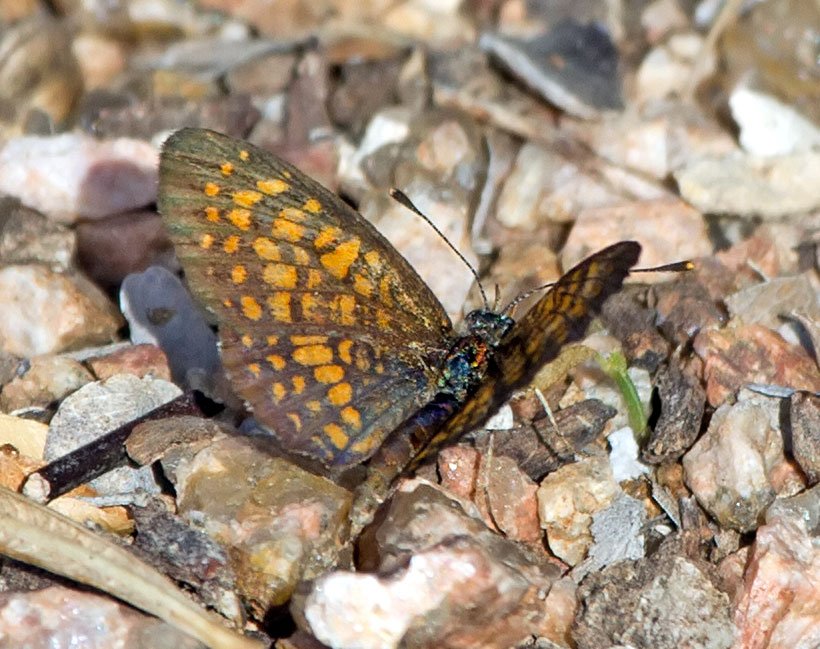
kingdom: Animalia
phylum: Arthropoda
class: Insecta
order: Lepidoptera
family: Nymphalidae
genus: Phyciodes
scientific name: Phyciodes vesta
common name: Vesta Crescent
